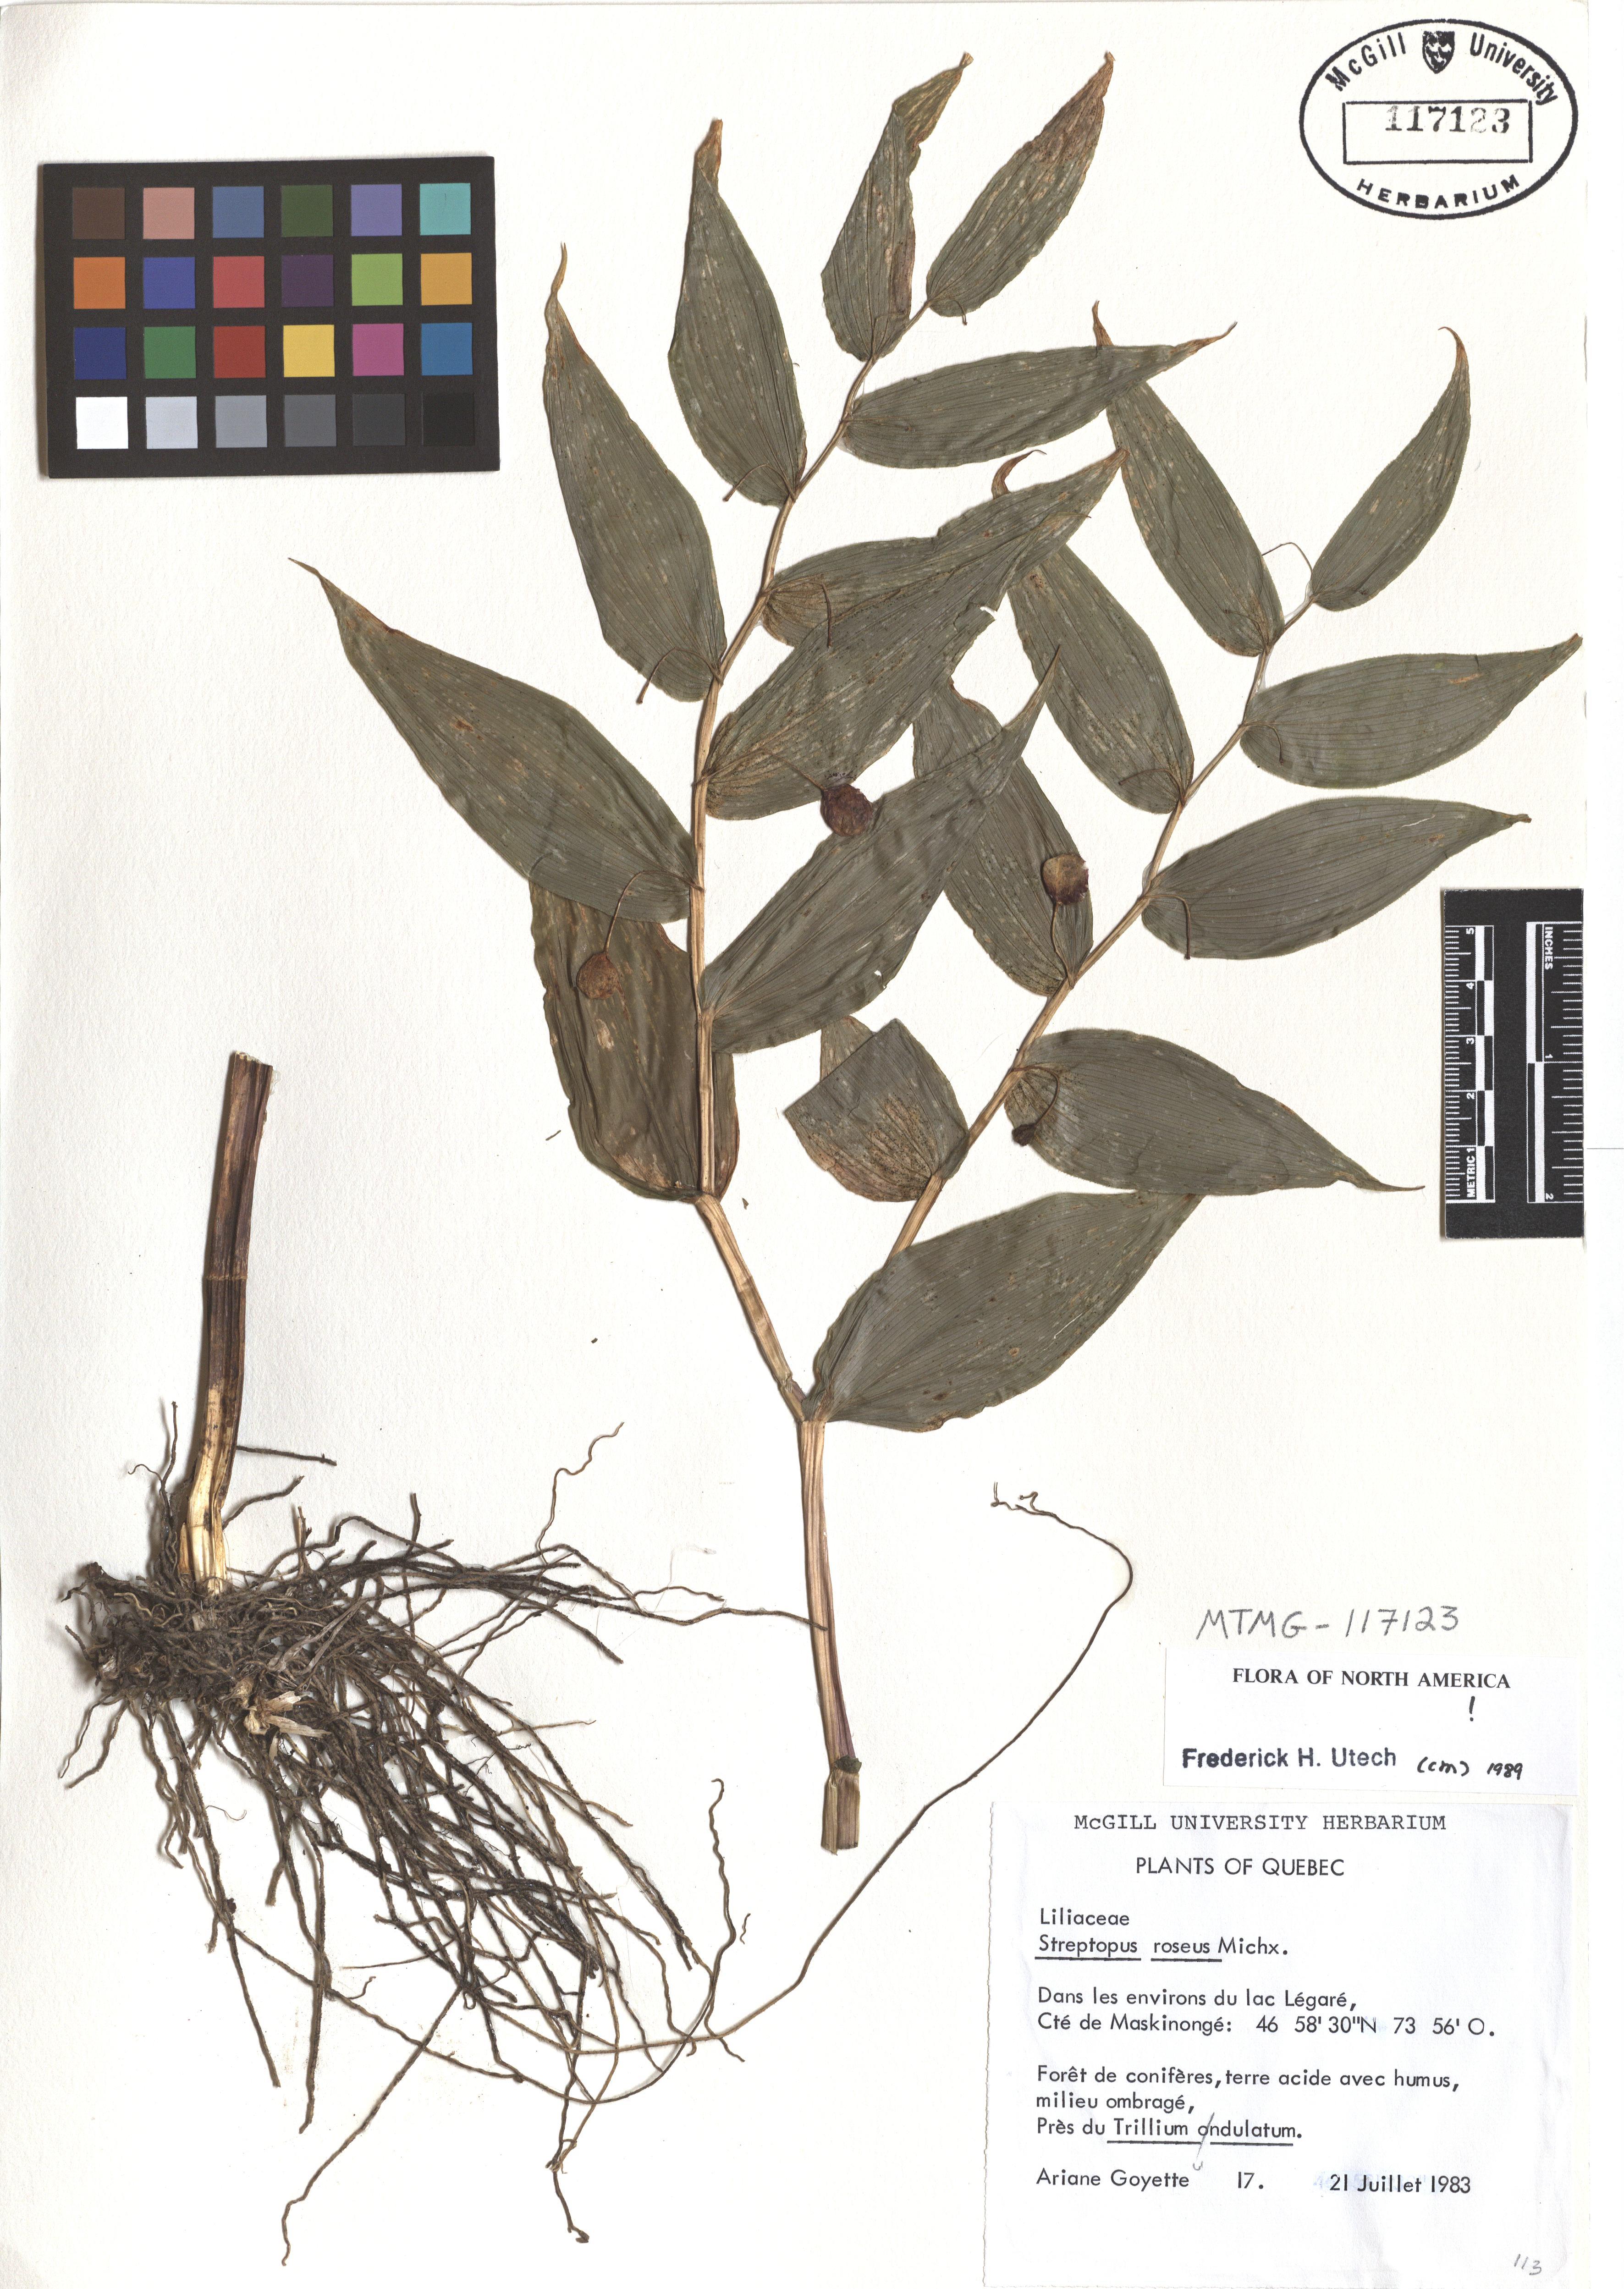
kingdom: Plantae
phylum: Tracheophyta
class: Liliopsida
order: Liliales
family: Liliaceae
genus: Streptopus
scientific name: Streptopus lanceolatus
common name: Rose mandarin
